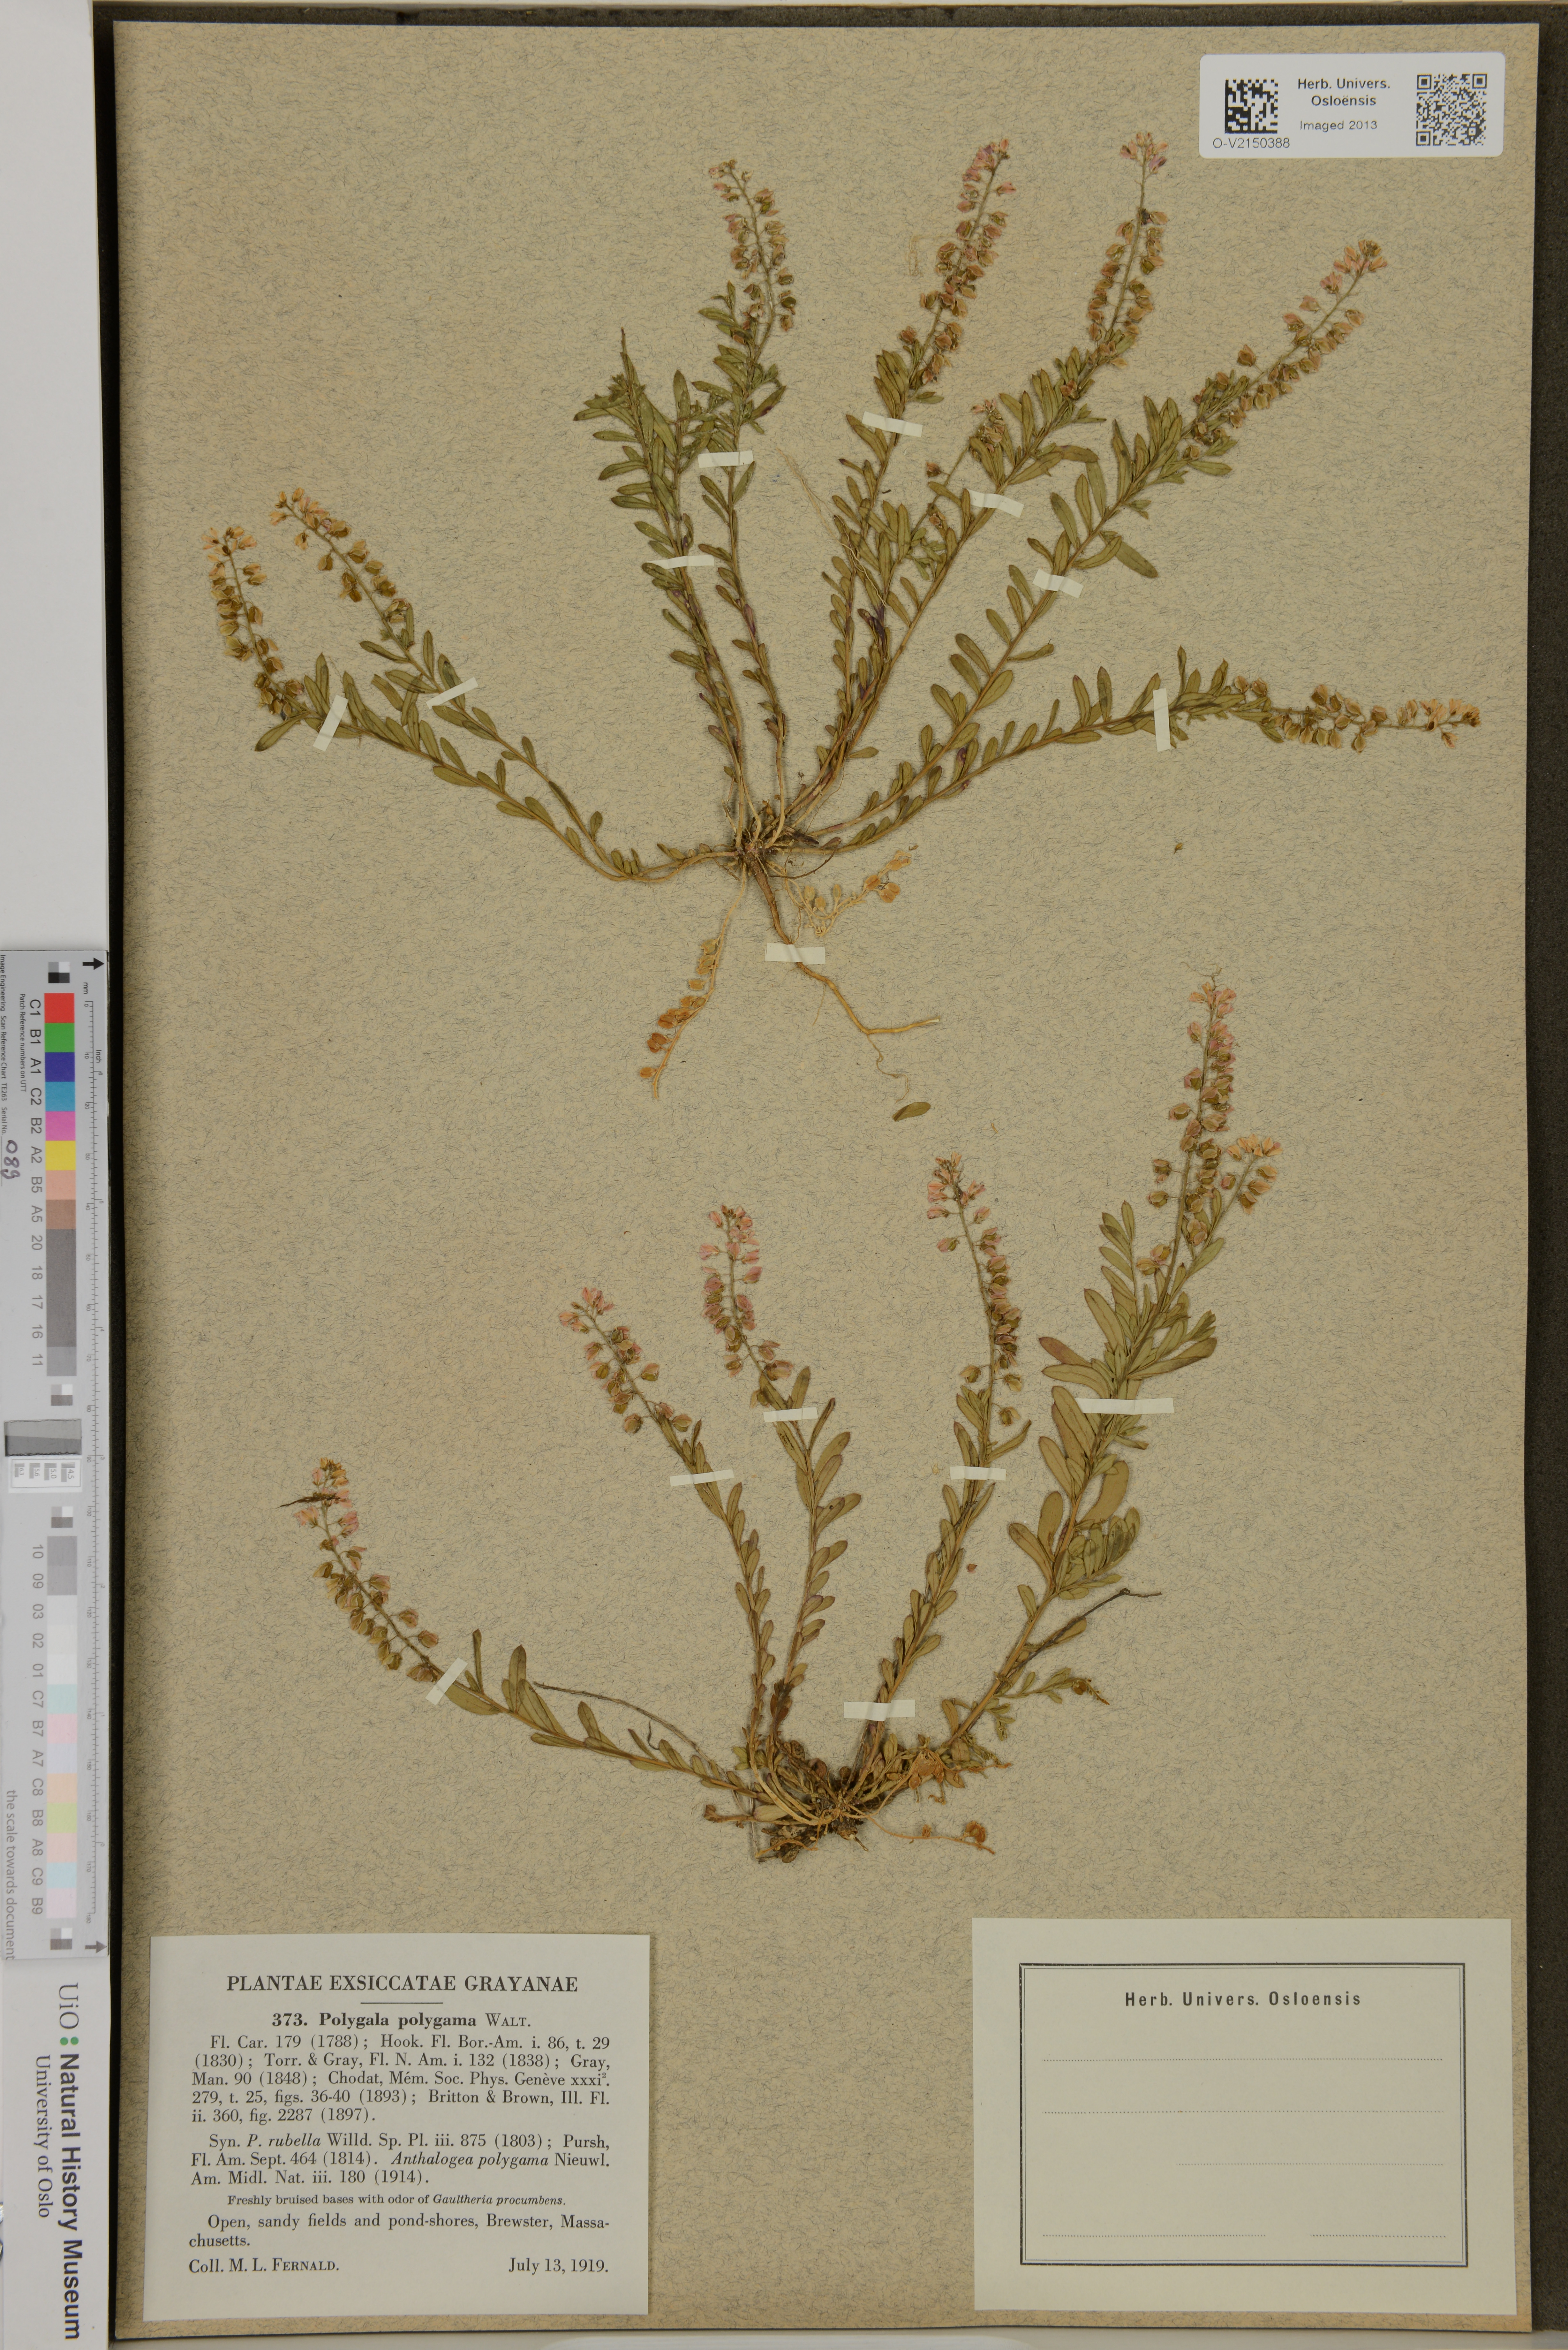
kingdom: Plantae
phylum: Tracheophyta
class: Magnoliopsida
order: Fabales
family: Polygalaceae
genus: Polygala
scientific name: Polygala polygama
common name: Bitter milkwort
